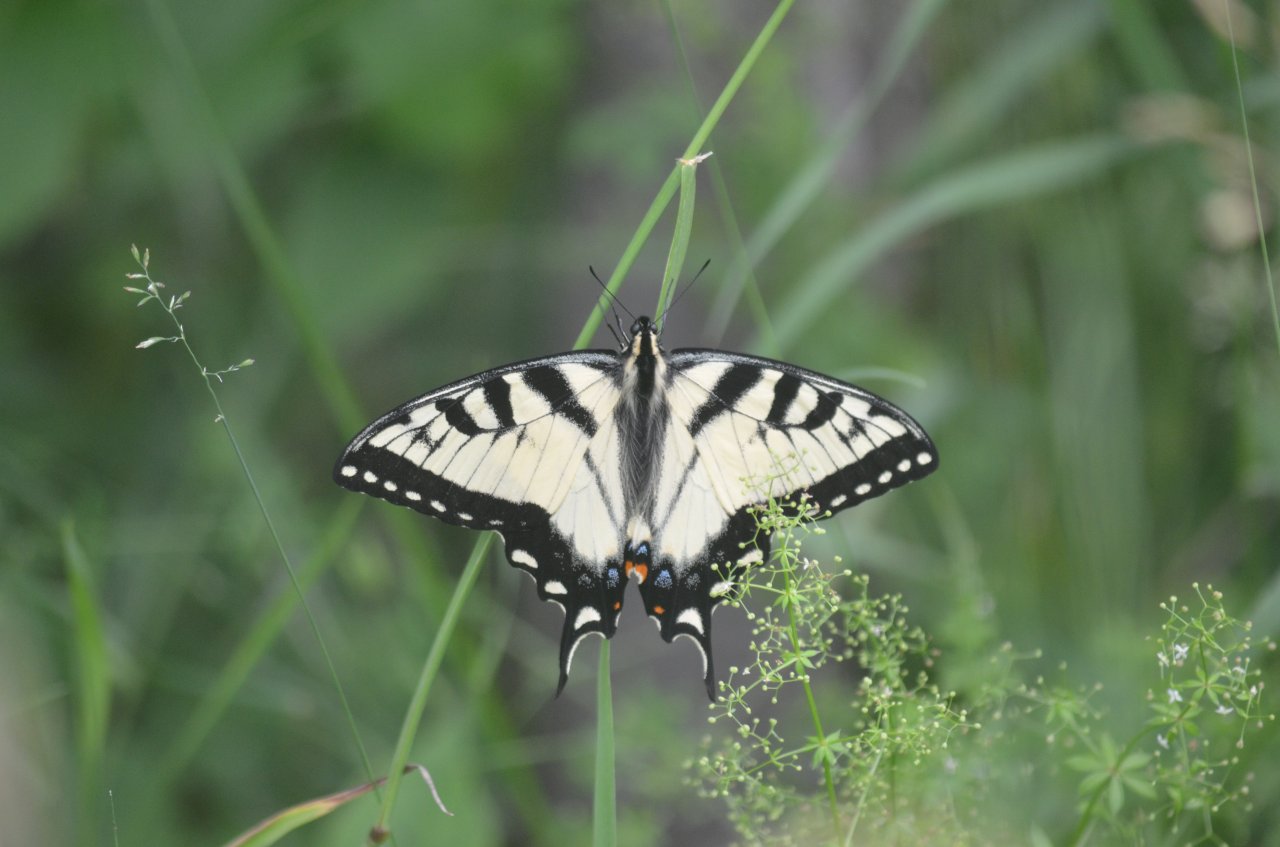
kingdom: Animalia
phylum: Arthropoda
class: Insecta
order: Lepidoptera
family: Papilionidae
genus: Pterourus
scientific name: Pterourus glaucus
